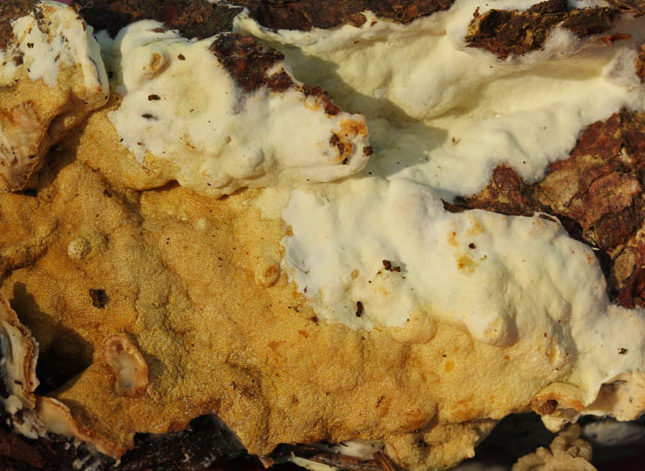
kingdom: Fungi
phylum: Ascomycota
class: Sordariomycetes
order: Hypocreales
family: Hypocreaceae
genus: Trichoderma
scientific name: Trichoderma citrinum
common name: udbredt kødkerne
